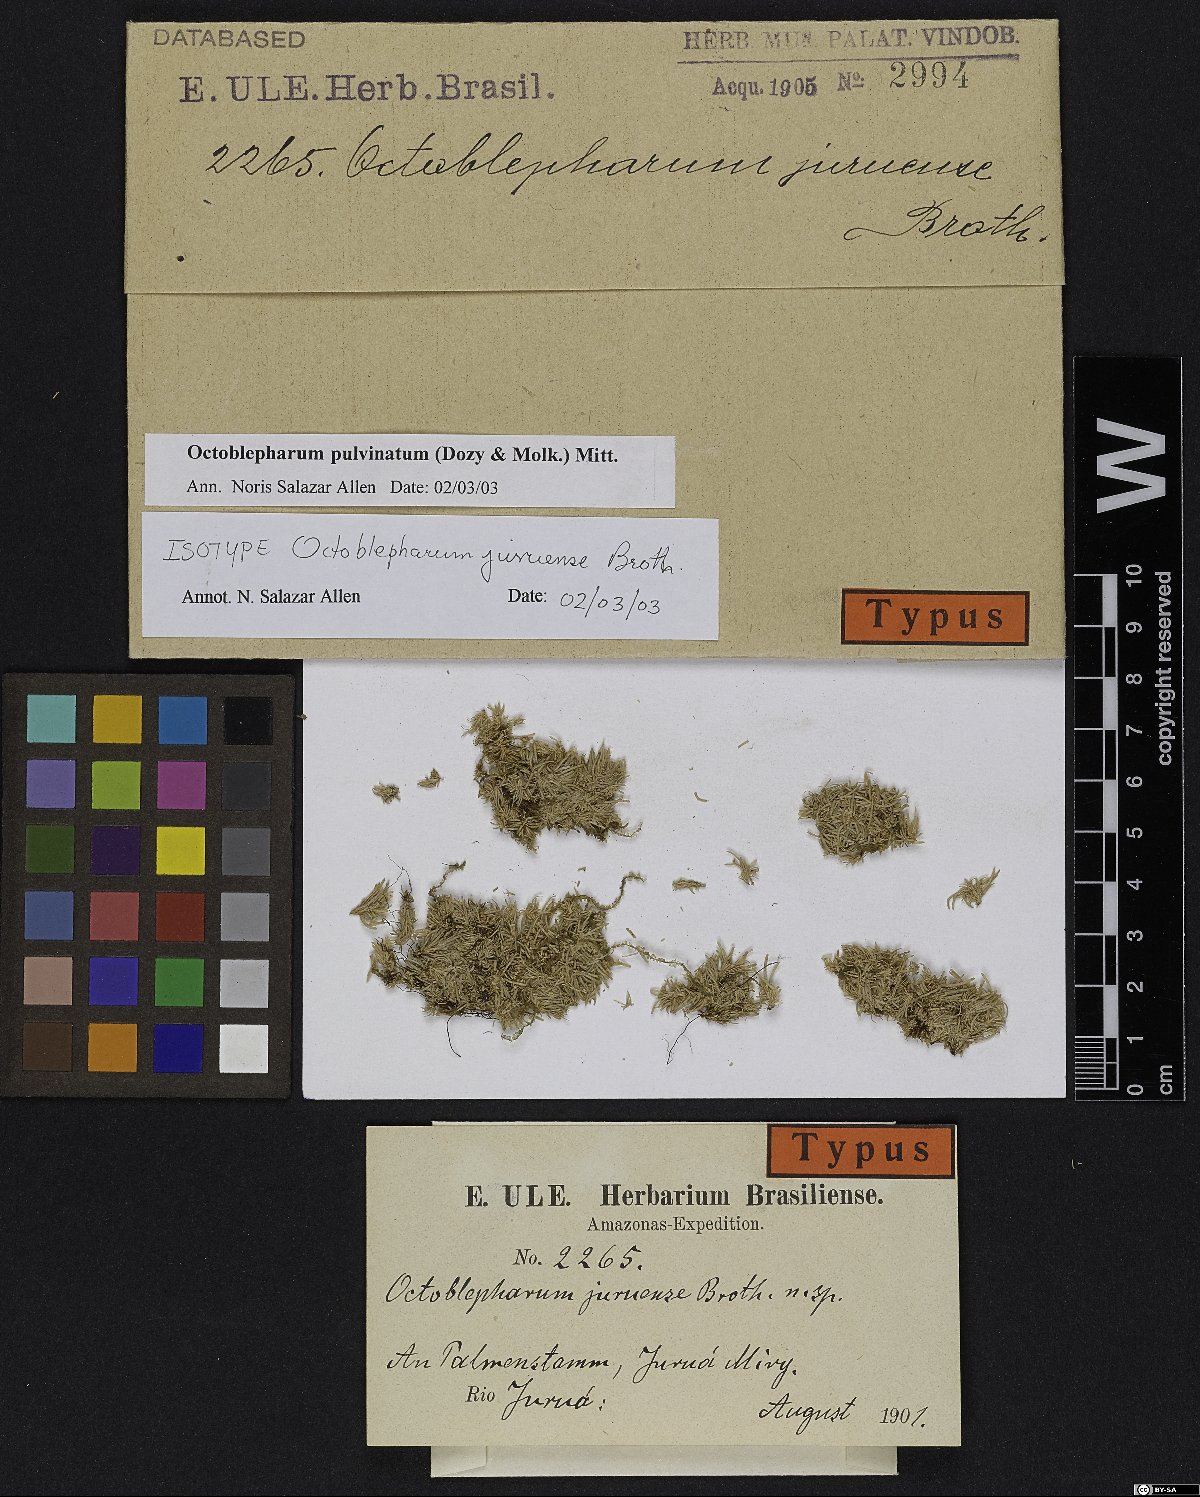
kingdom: Plantae
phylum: Bryophyta
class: Bryopsida
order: Dicranales
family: Octoblepharaceae
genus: Octoblepharum
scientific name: Octoblepharum pulvinatum
